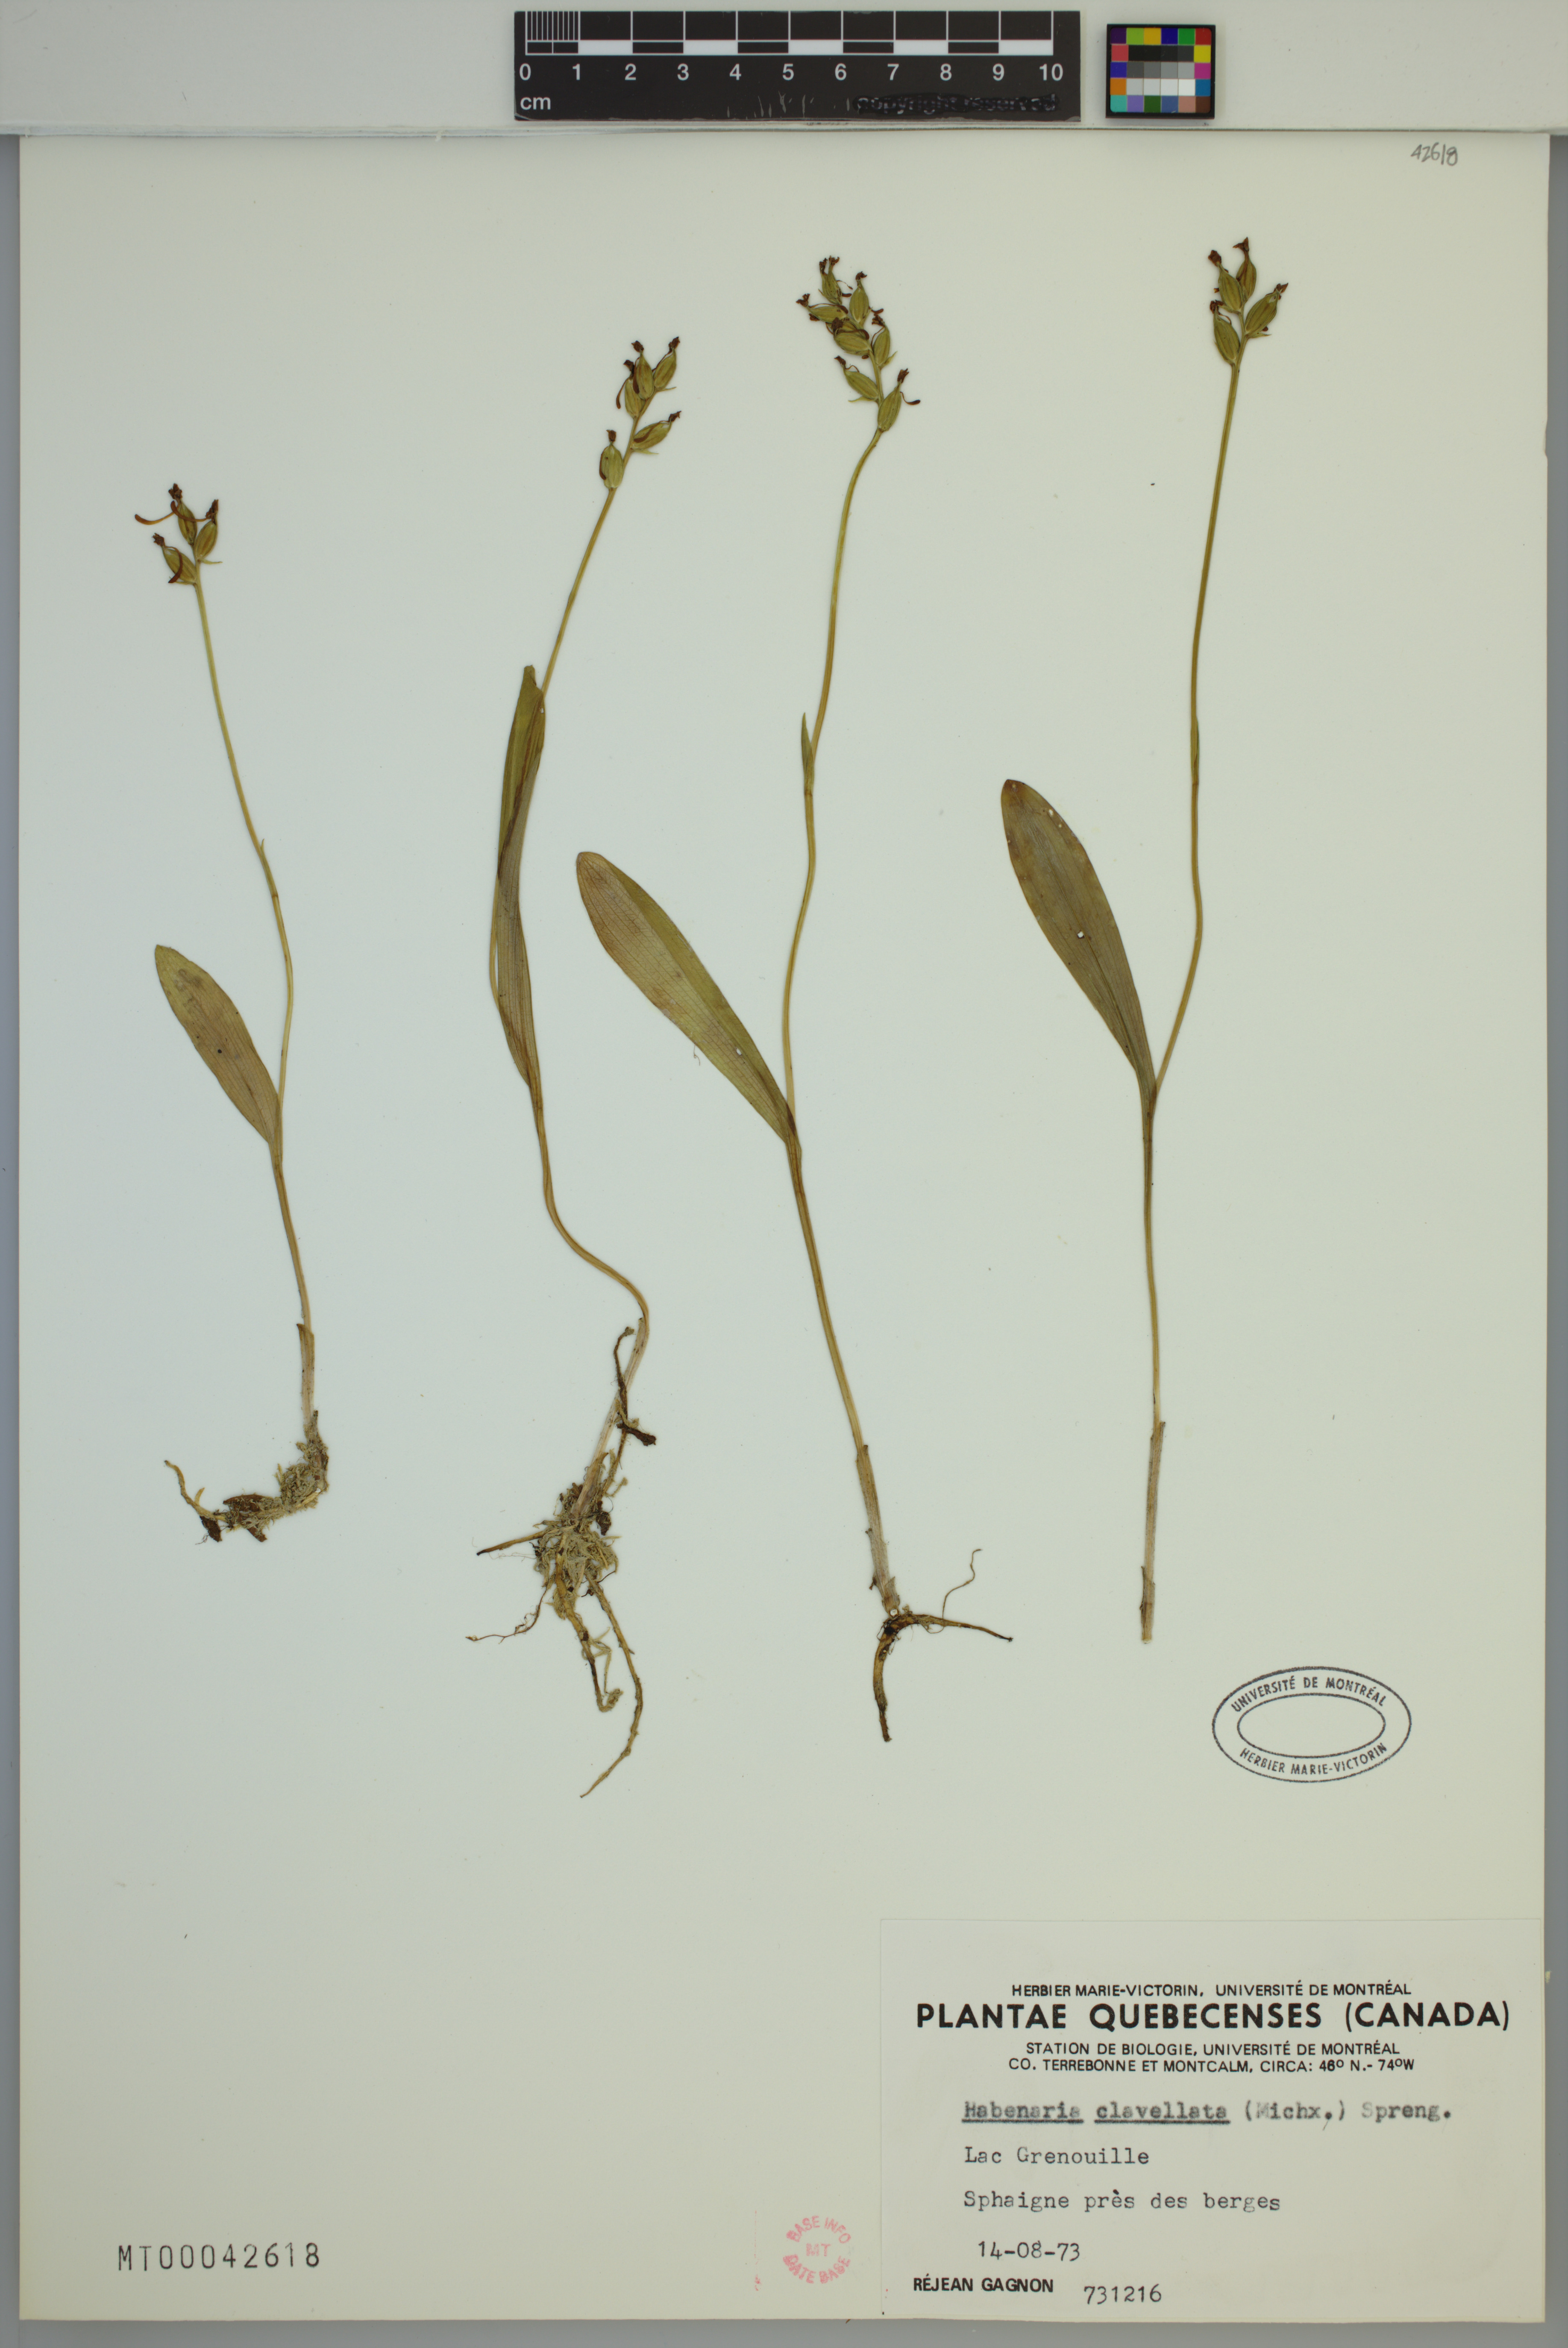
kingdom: Plantae
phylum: Tracheophyta
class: Liliopsida
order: Asparagales
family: Orchidaceae
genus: Platanthera
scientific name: Platanthera clavellata
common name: Club-spur orchid
